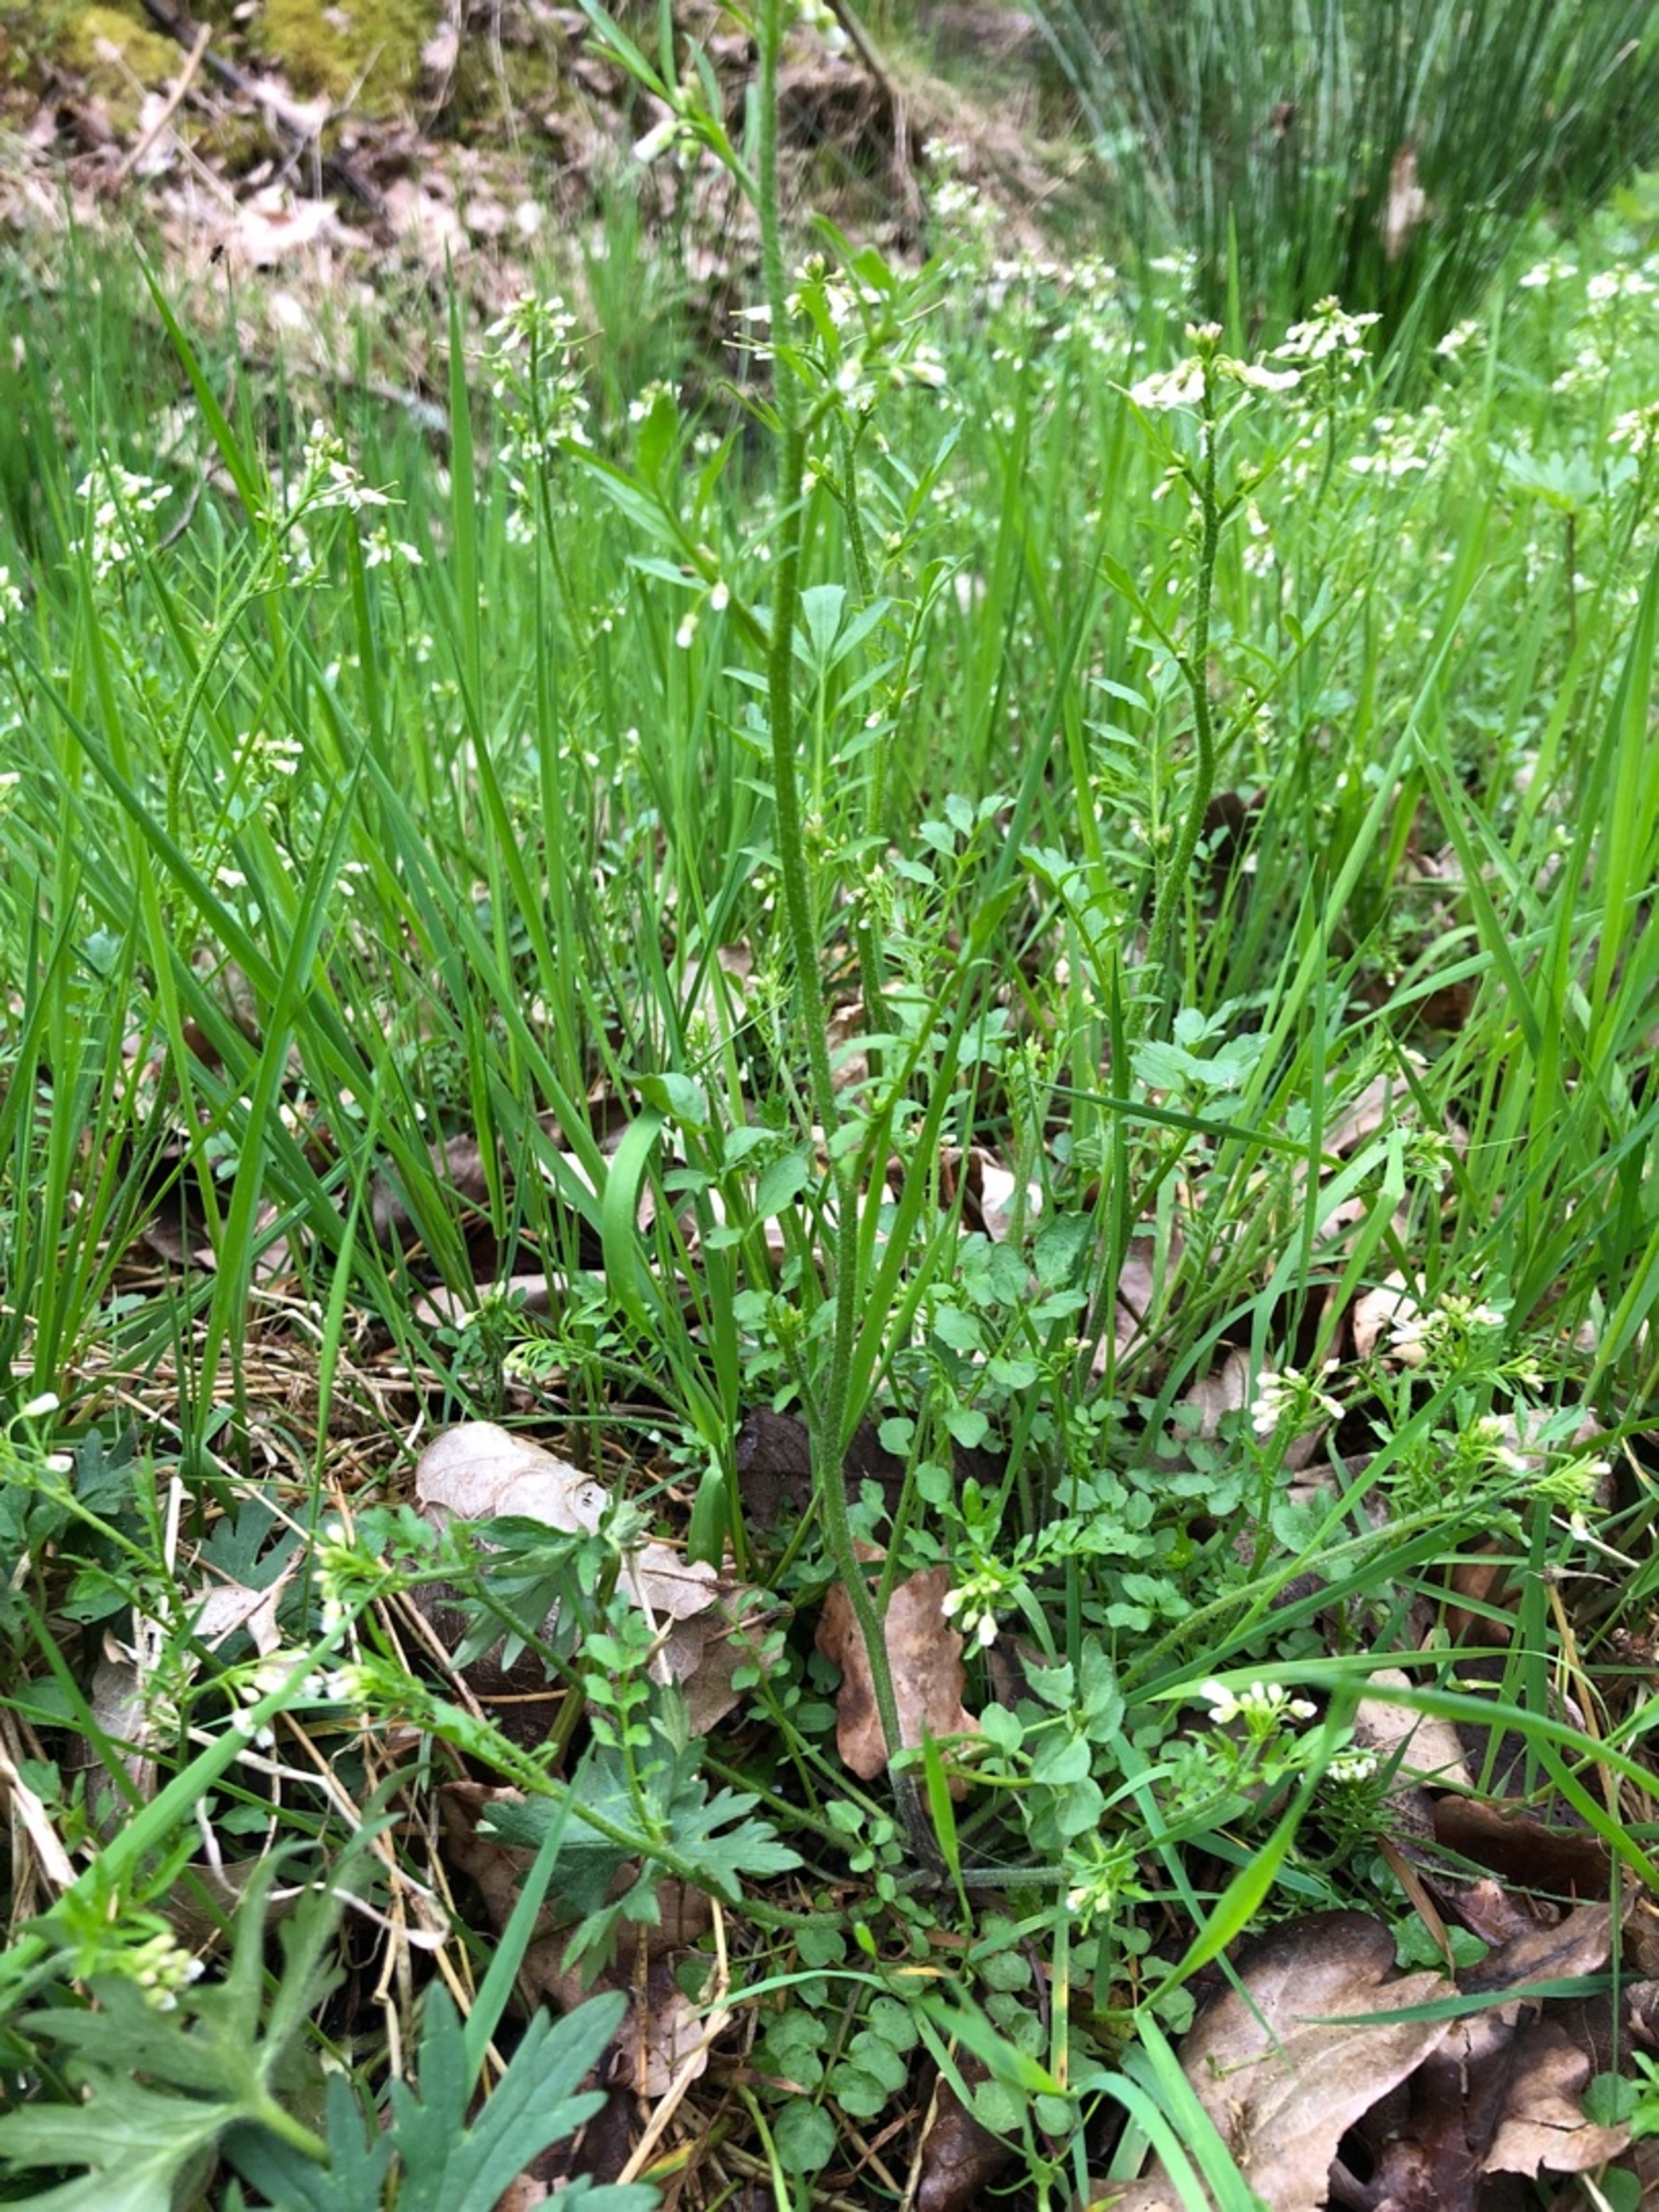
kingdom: Plantae
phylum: Tracheophyta
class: Magnoliopsida
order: Brassicales
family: Brassicaceae
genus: Cardamine
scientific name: Cardamine flexuosa
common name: Skov-springklap
